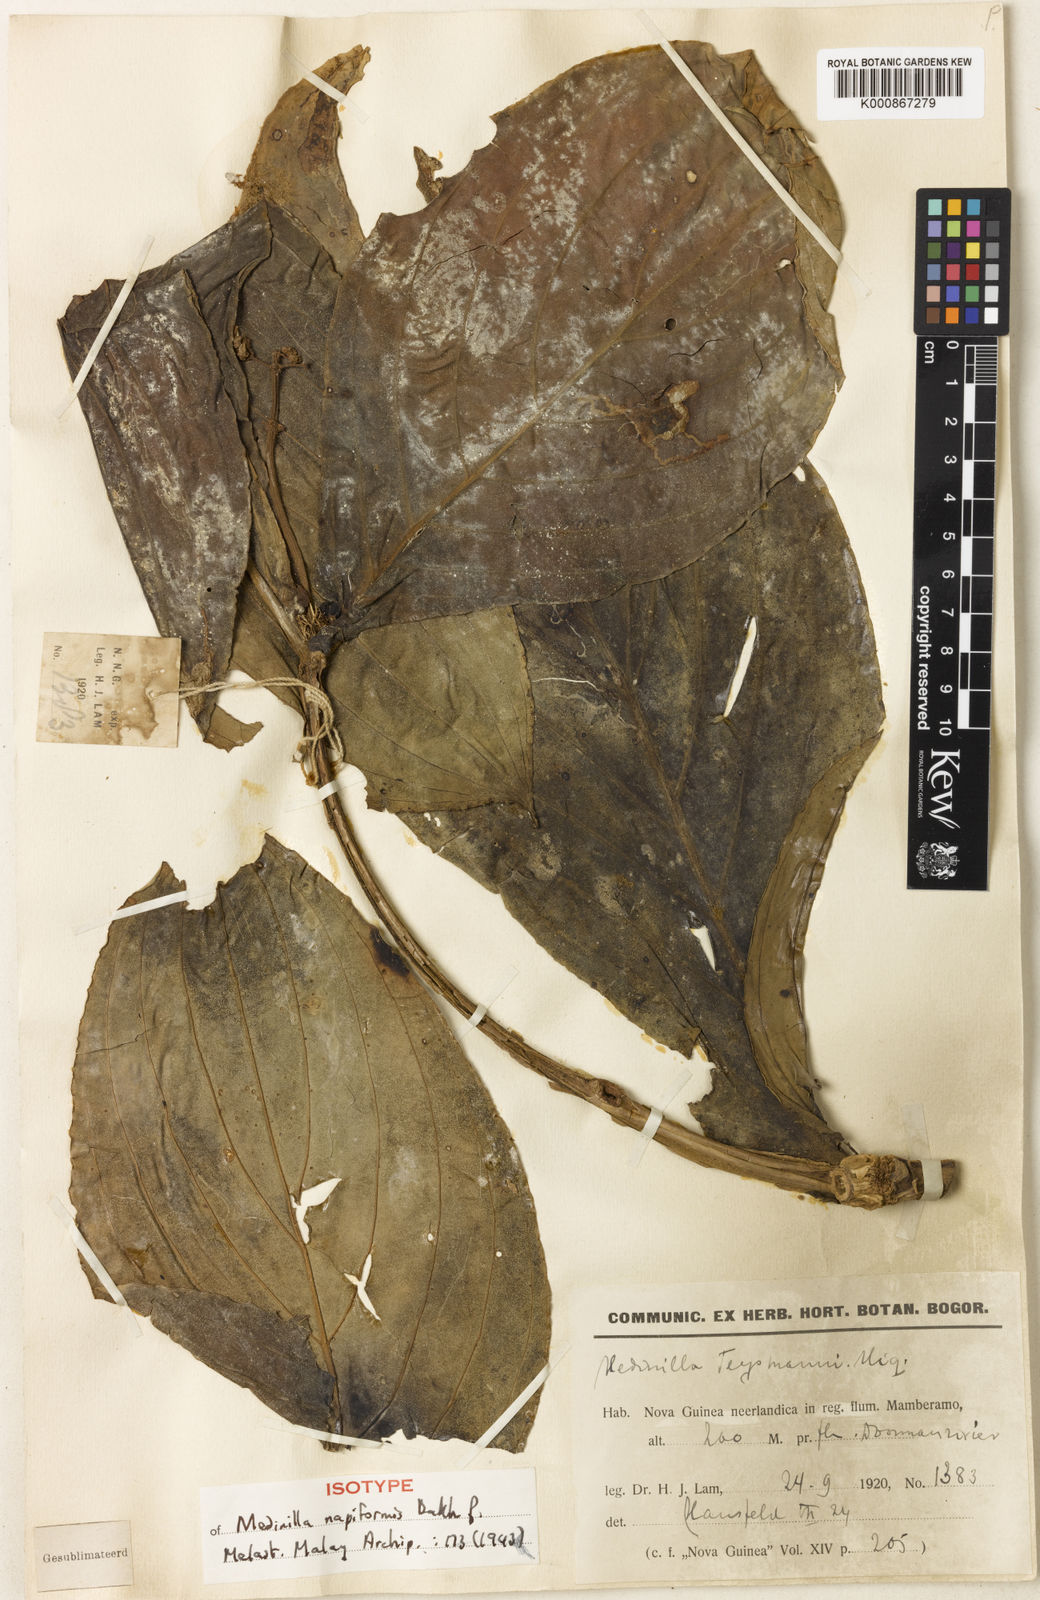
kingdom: Plantae
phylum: Tracheophyta
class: Magnoliopsida
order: Myrtales
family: Melastomataceae
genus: Medinilla
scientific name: Medinilla napiformis
